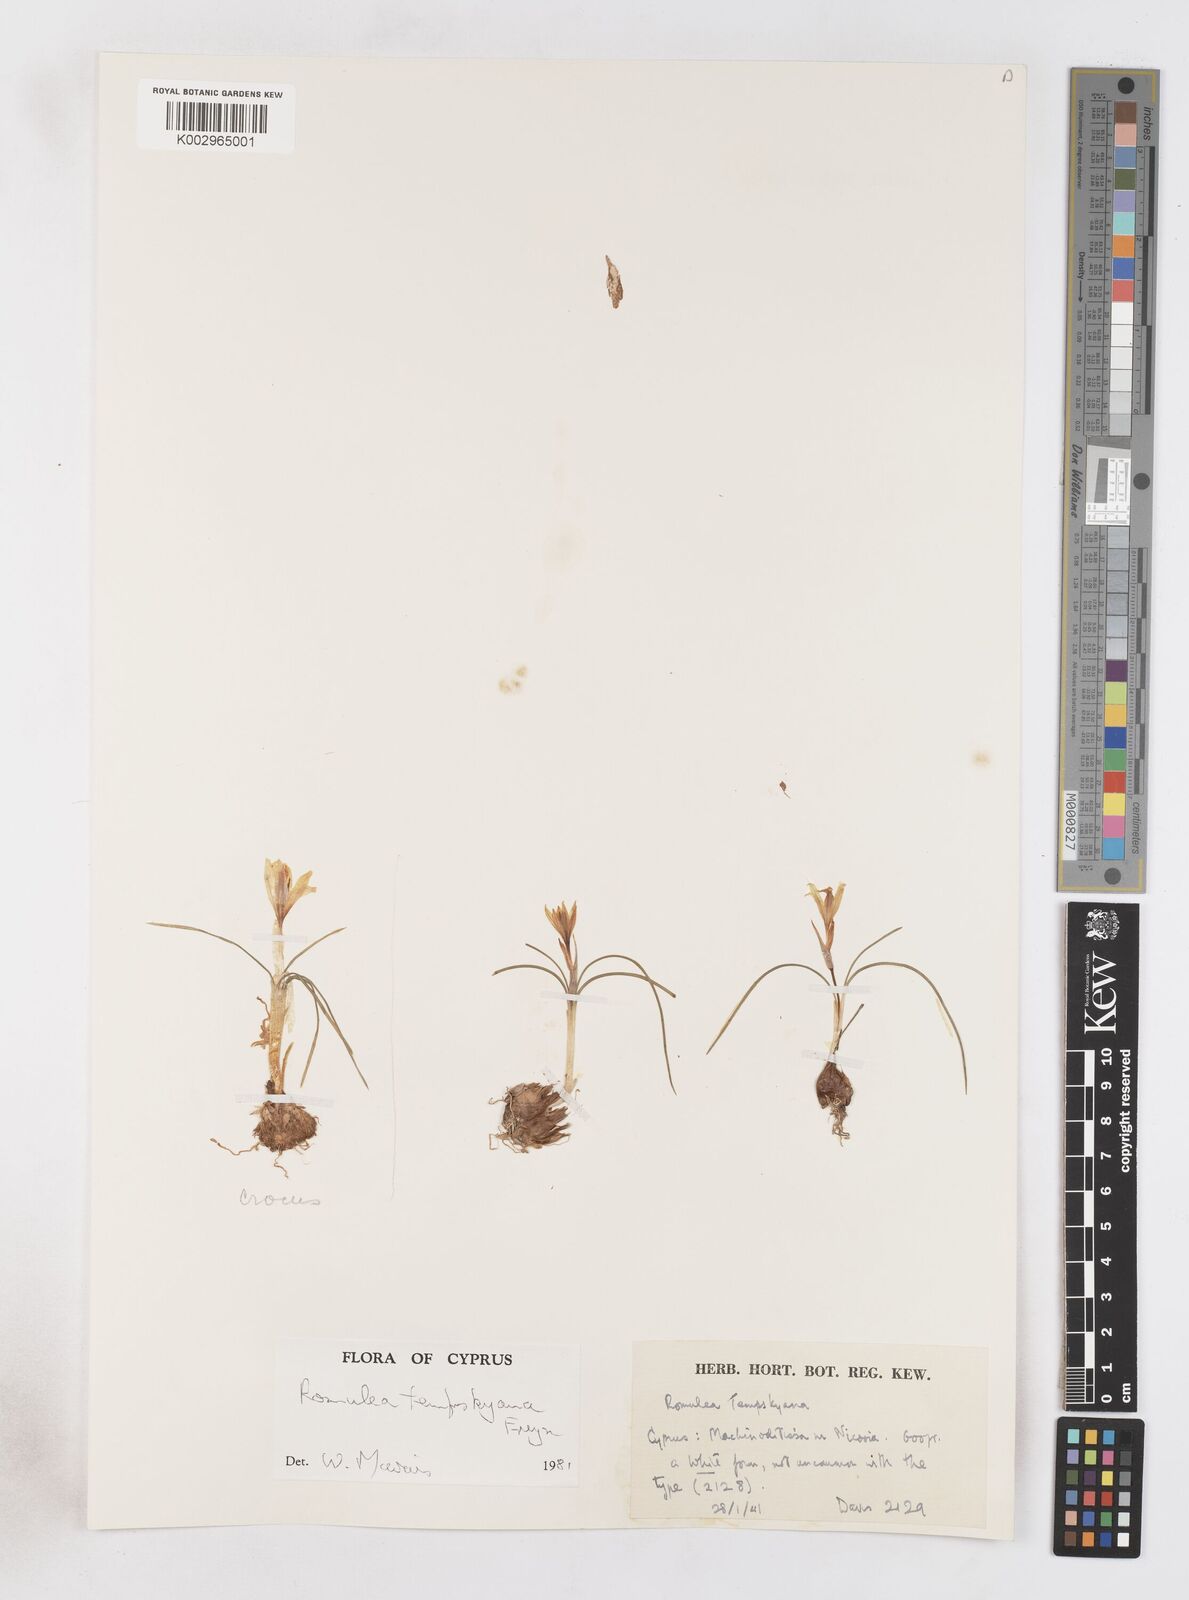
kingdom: Plantae
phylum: Tracheophyta
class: Liliopsida
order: Asparagales
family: Iridaceae
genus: Romulea
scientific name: Romulea tempskyana
